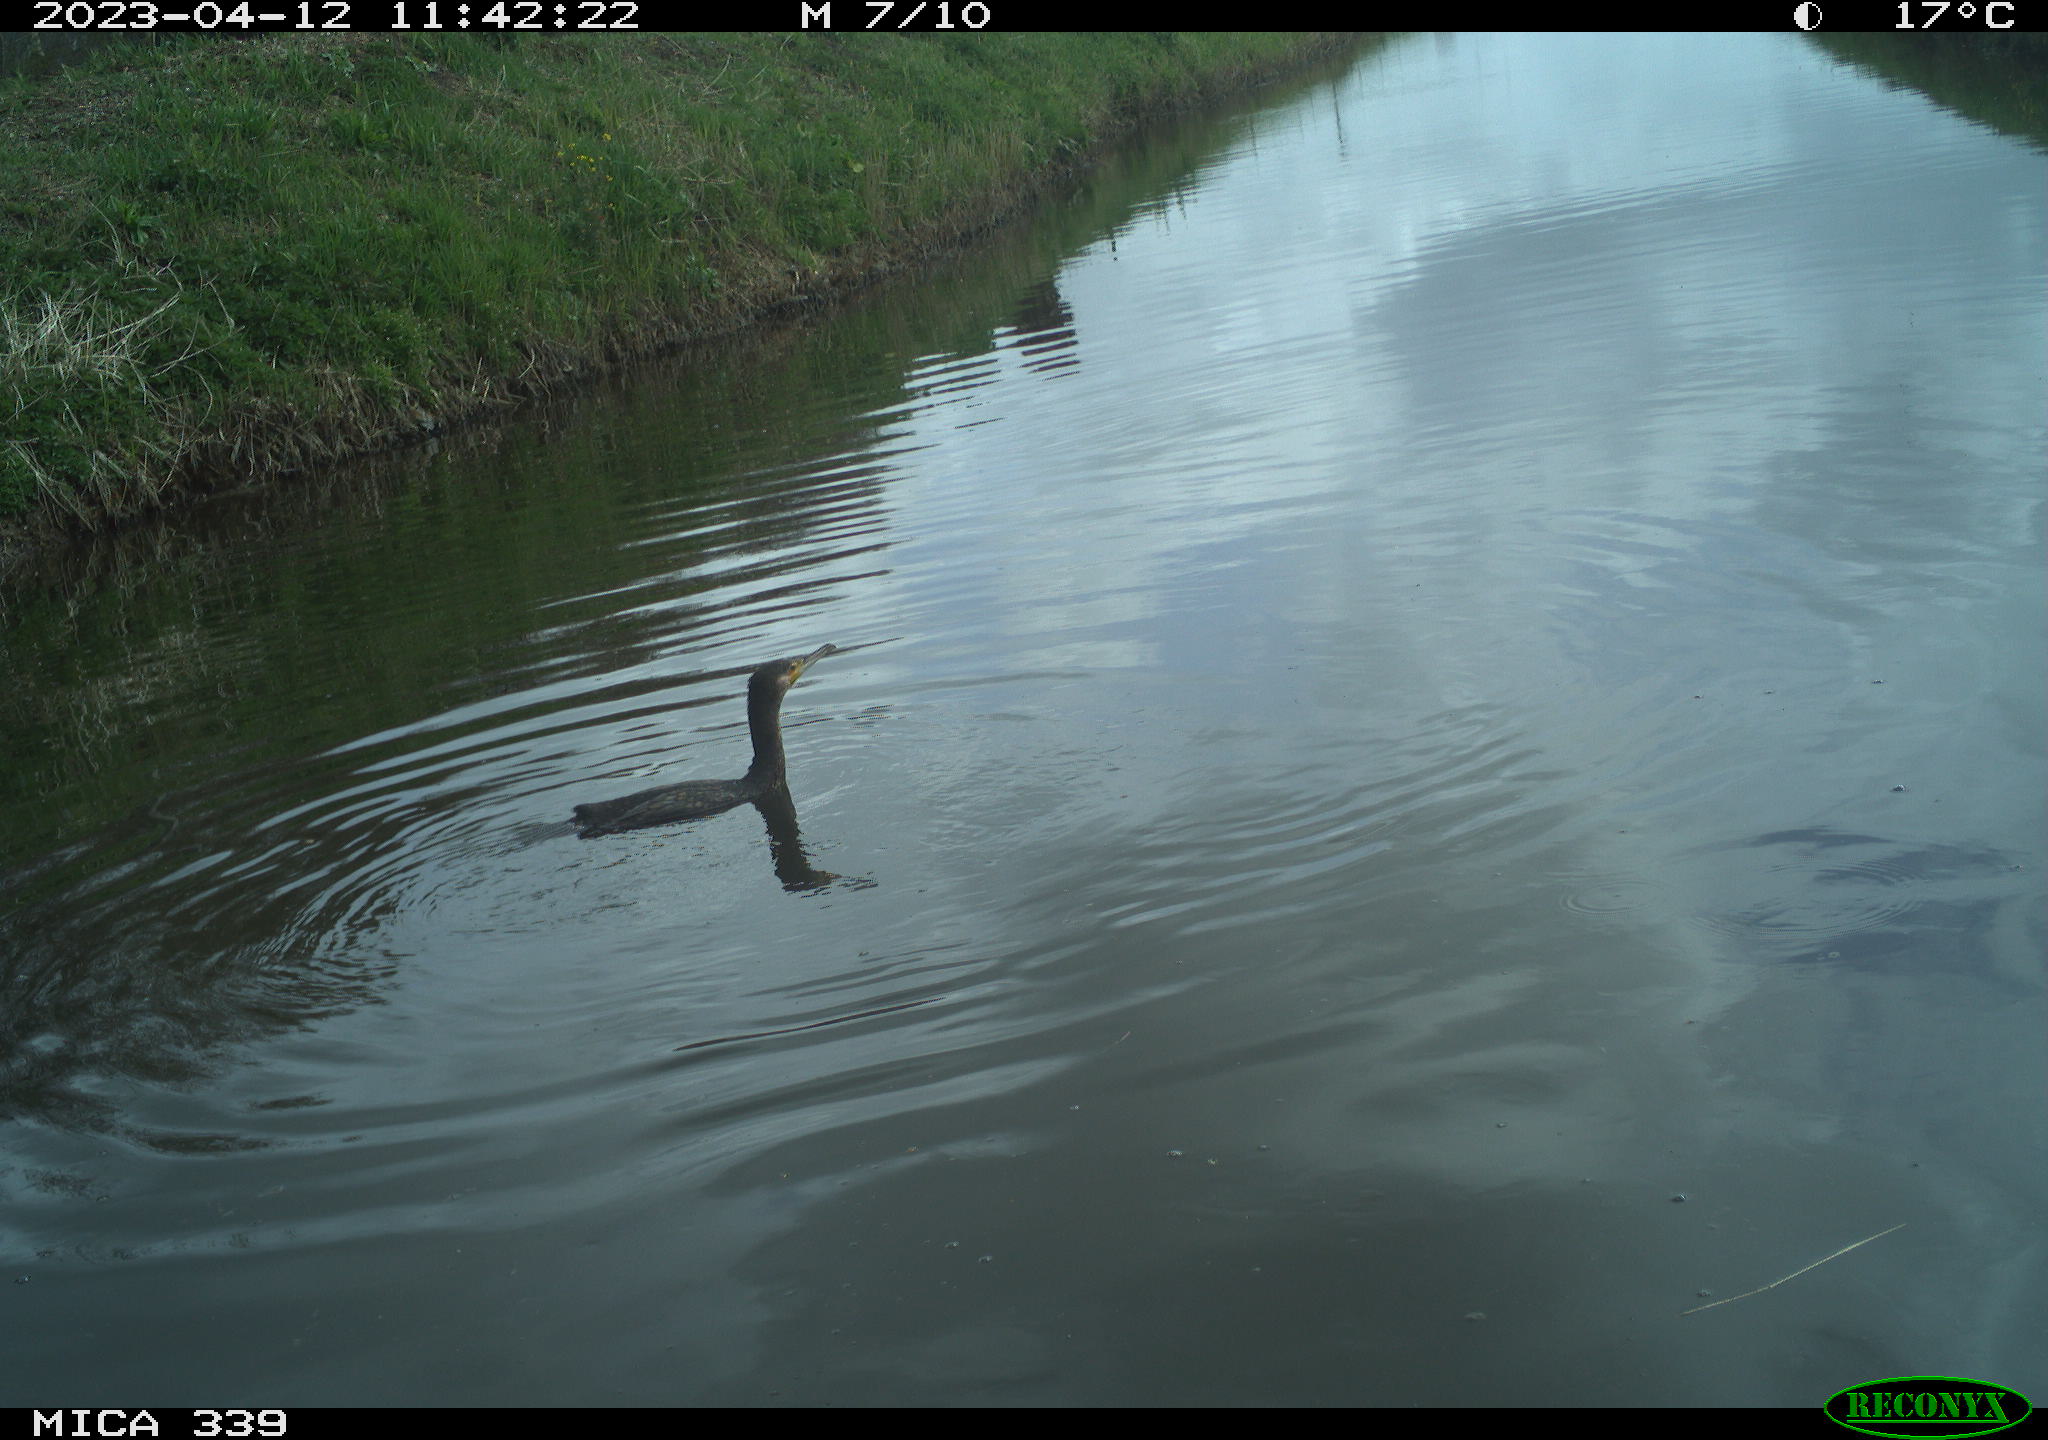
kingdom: Animalia
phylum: Chordata
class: Aves
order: Pelecaniformes
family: Ardeidae
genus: Ardea
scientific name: Ardea
